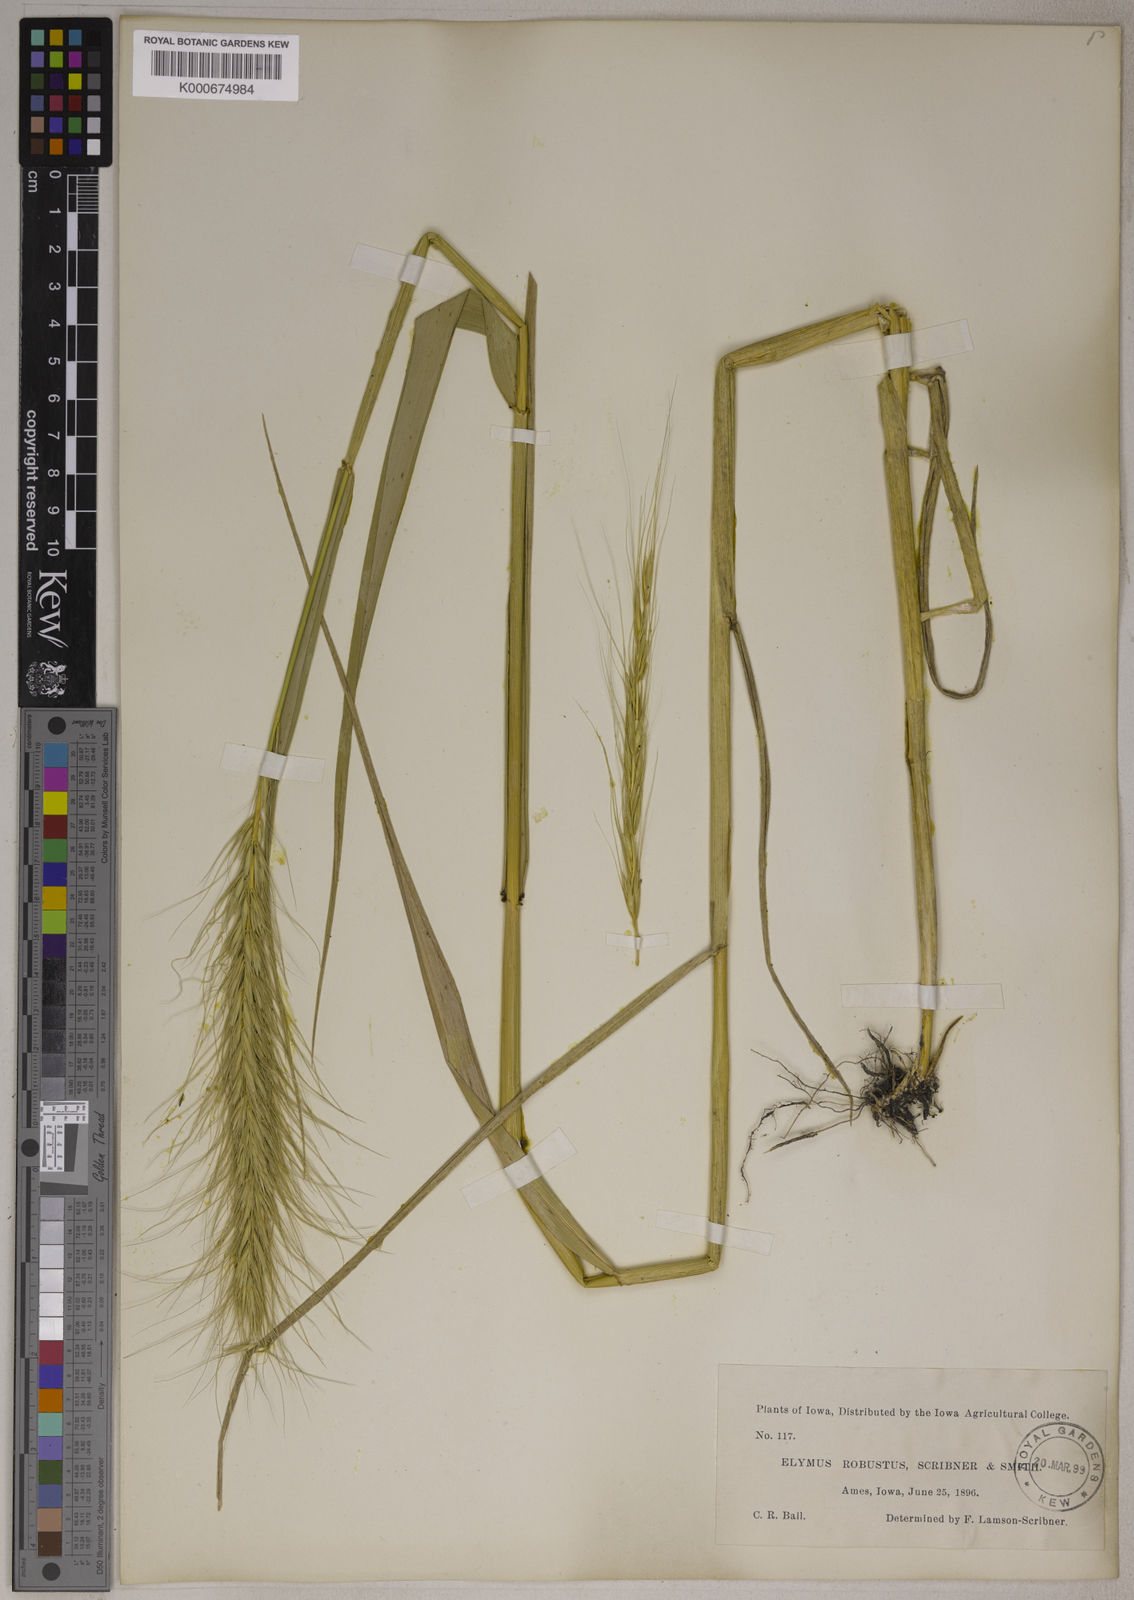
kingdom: Plantae
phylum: Tracheophyta
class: Liliopsida
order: Poales
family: Poaceae
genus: Elymus
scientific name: Elymus canadensis
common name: Canada wild rye
